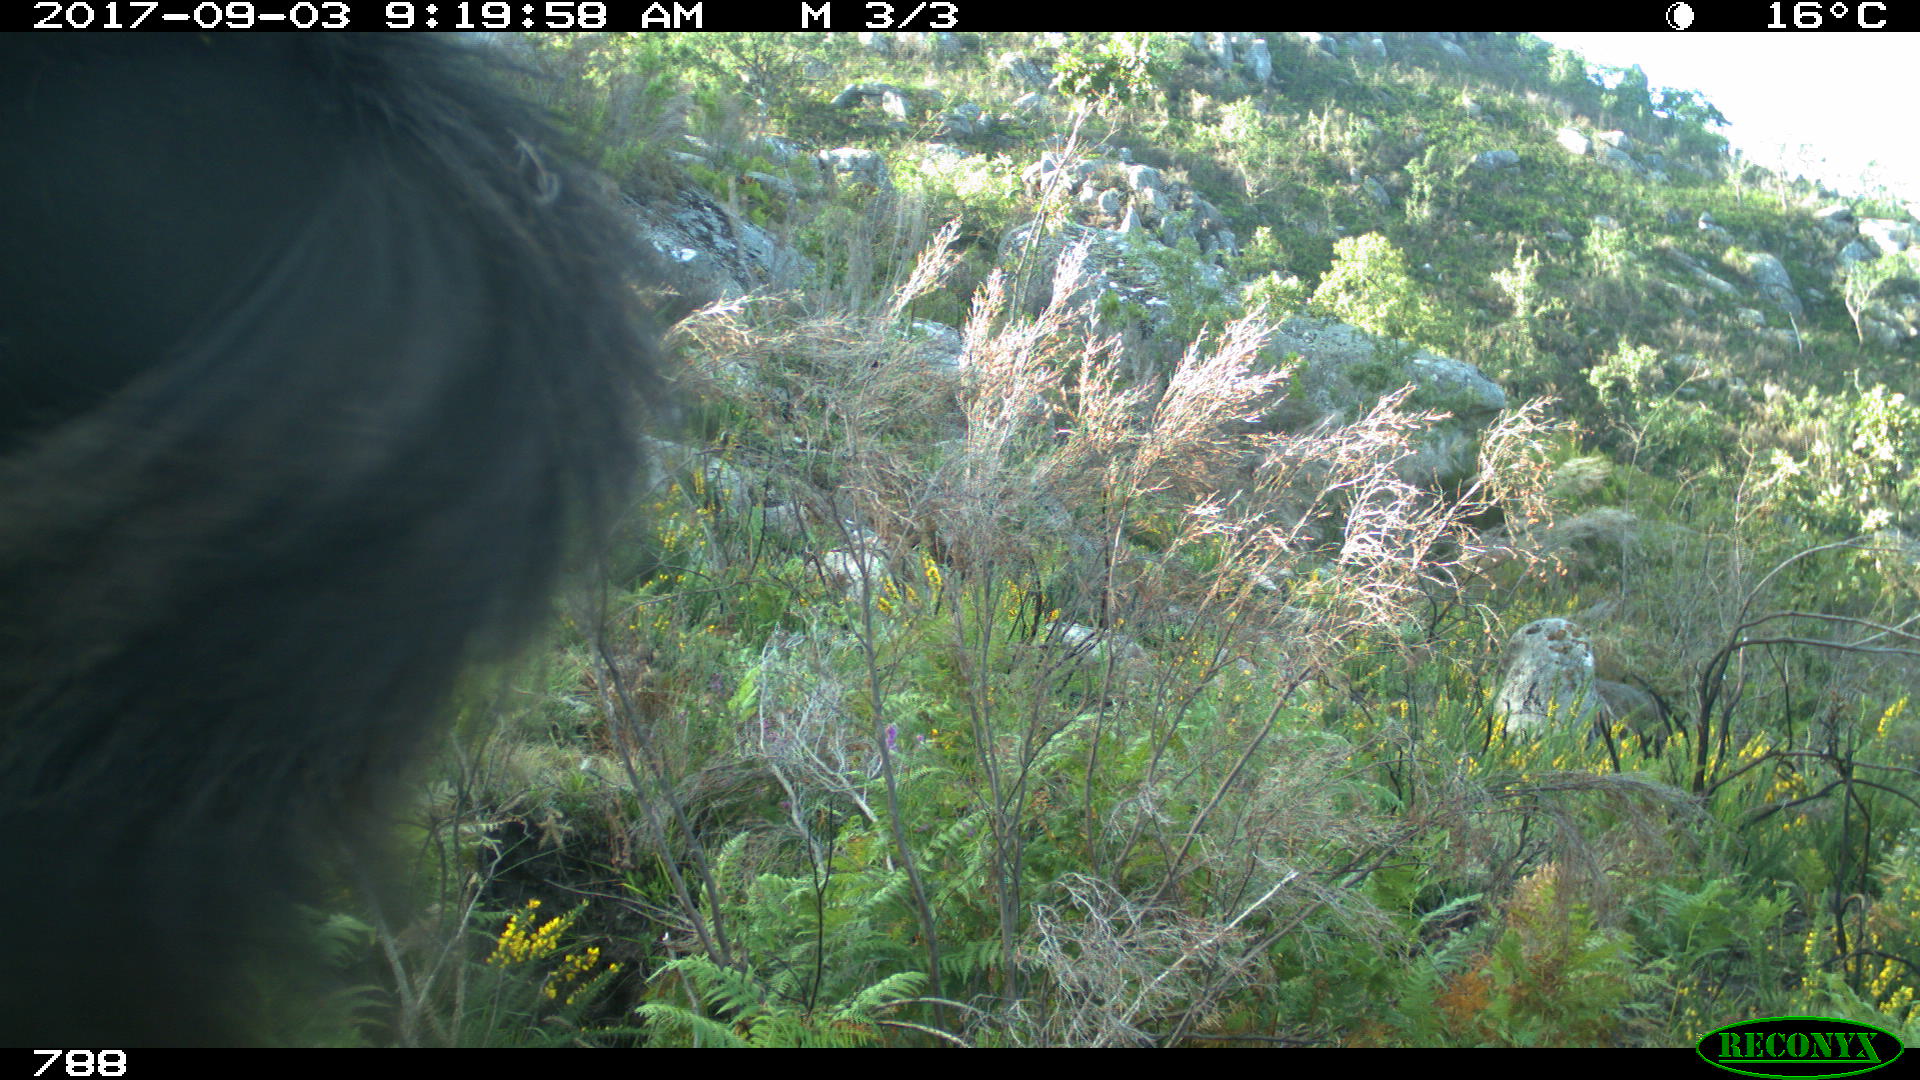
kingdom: Animalia
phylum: Chordata
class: Mammalia
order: Perissodactyla
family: Equidae
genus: Equus
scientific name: Equus caballus
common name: Horse
